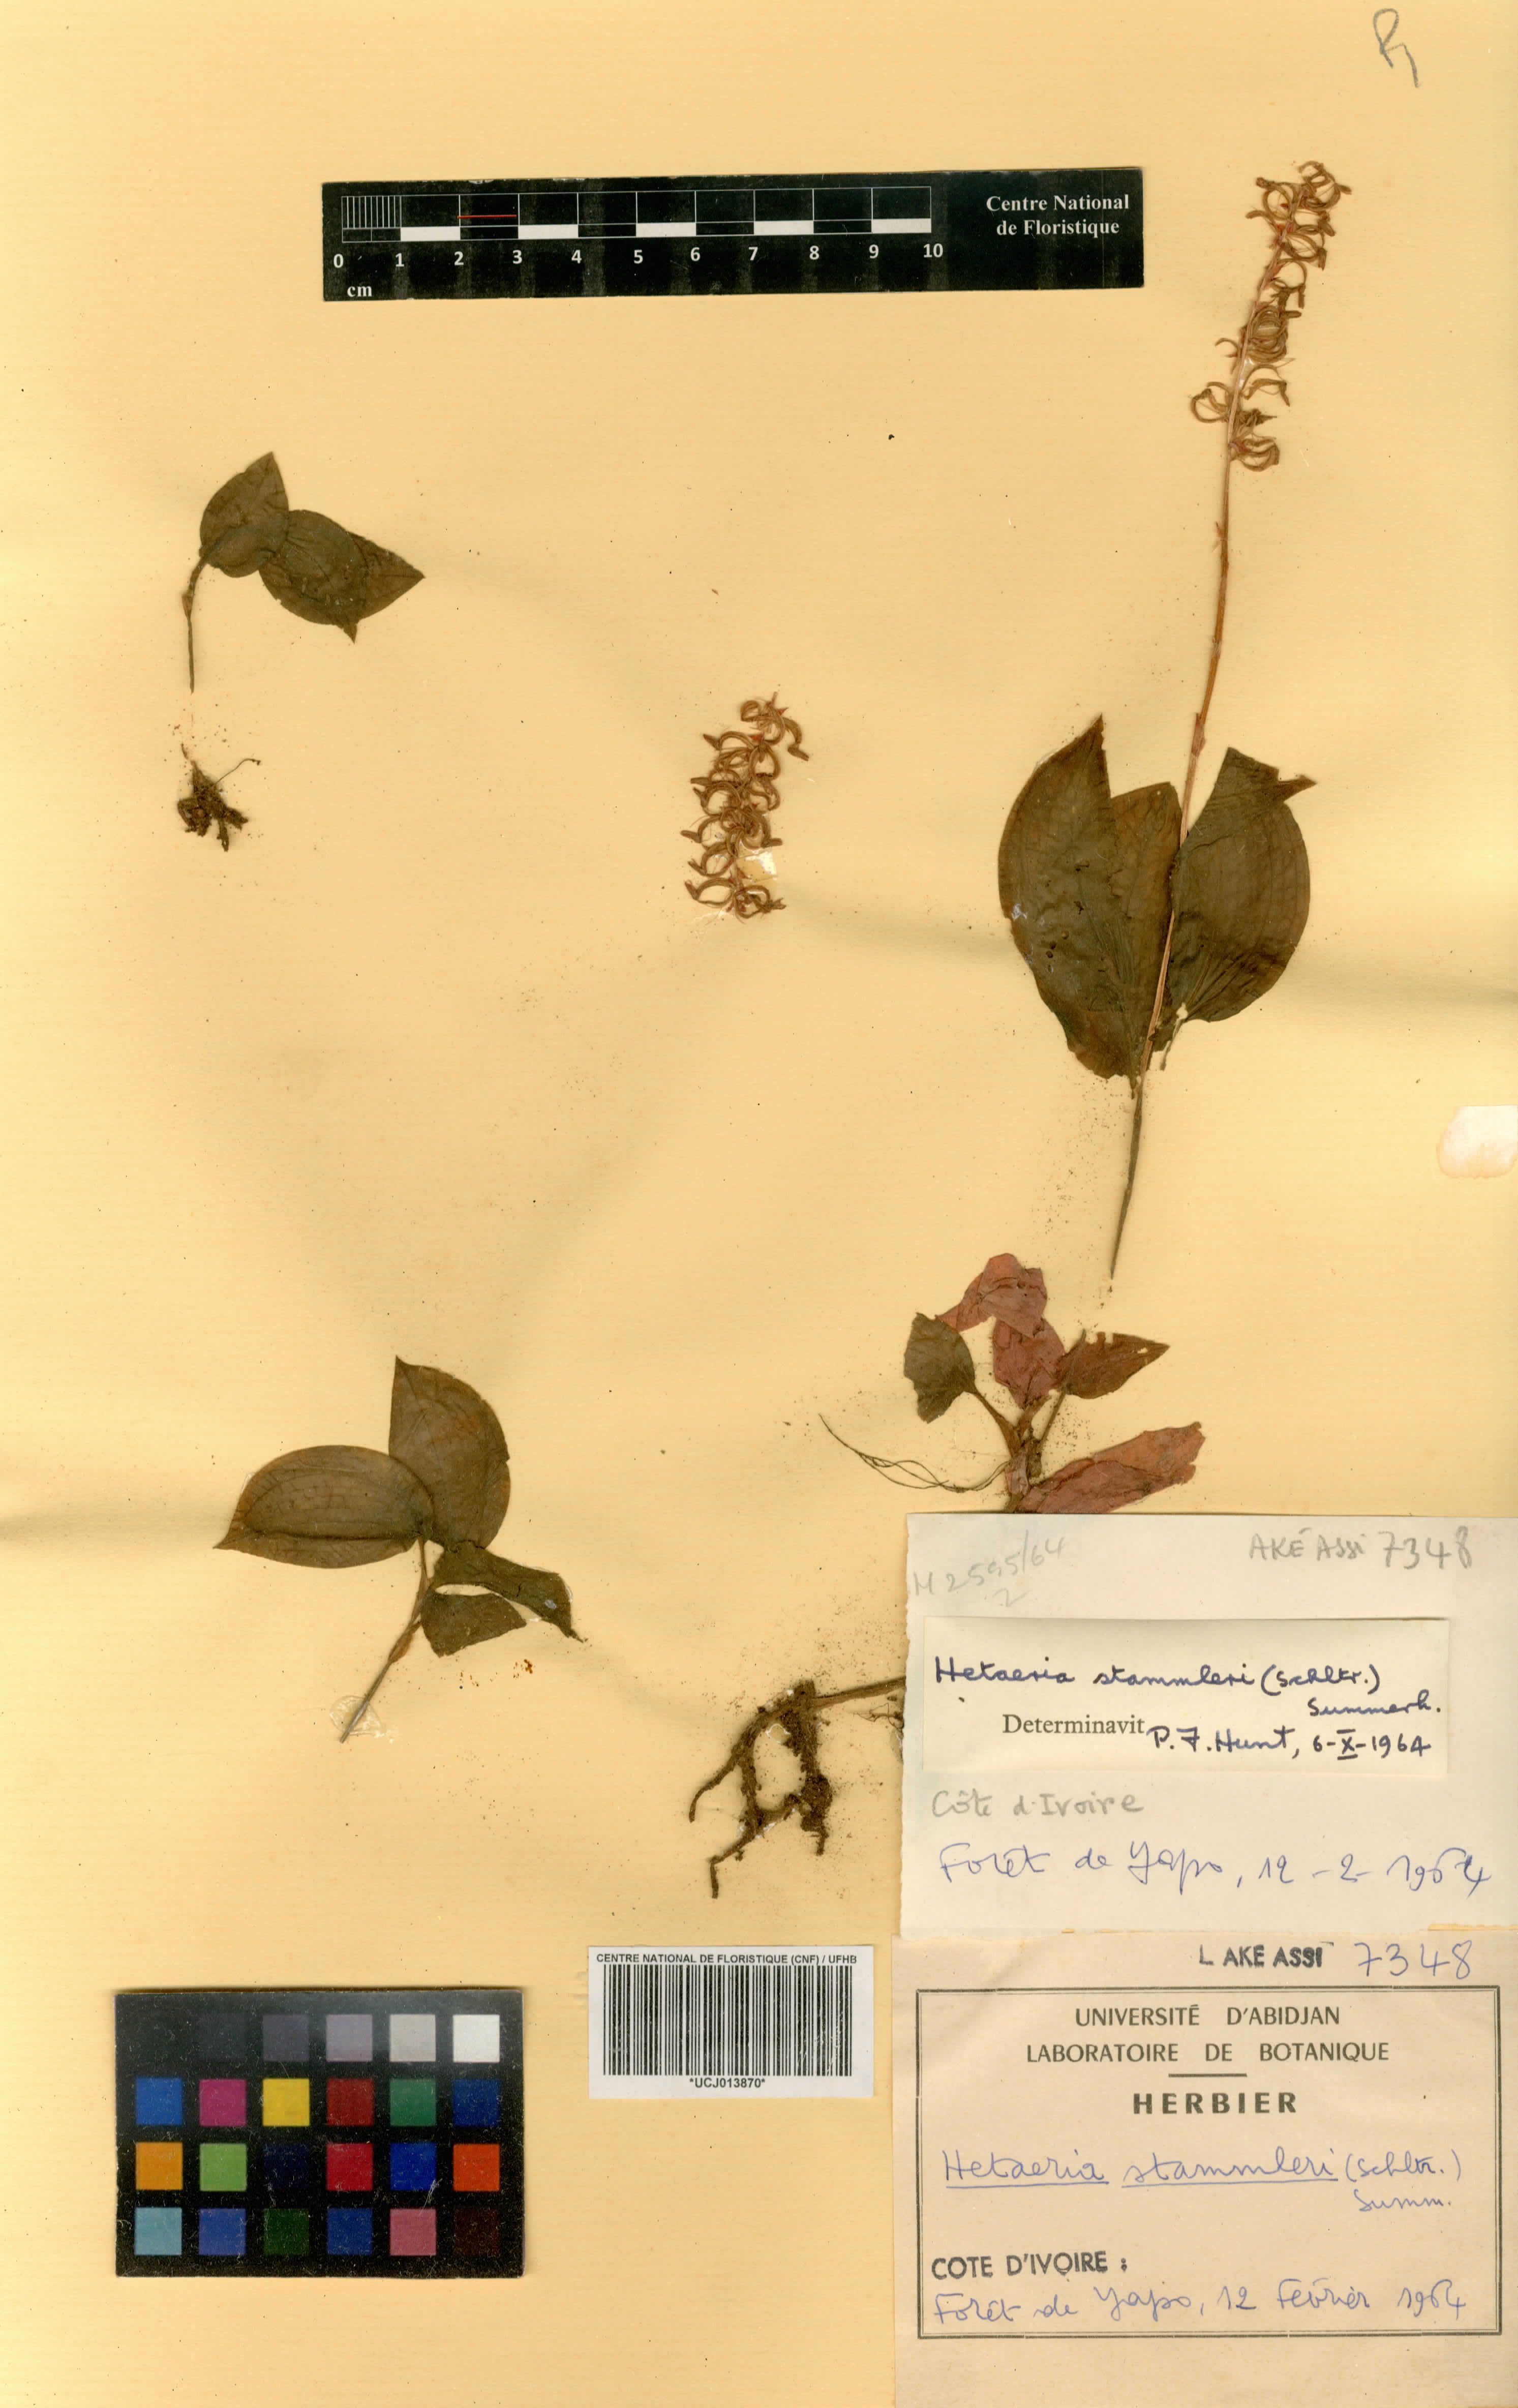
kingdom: Plantae
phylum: Tracheophyta
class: Liliopsida
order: Asparagales
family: Orchidaceae
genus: Zeuxine
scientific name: Zeuxine stammleri
